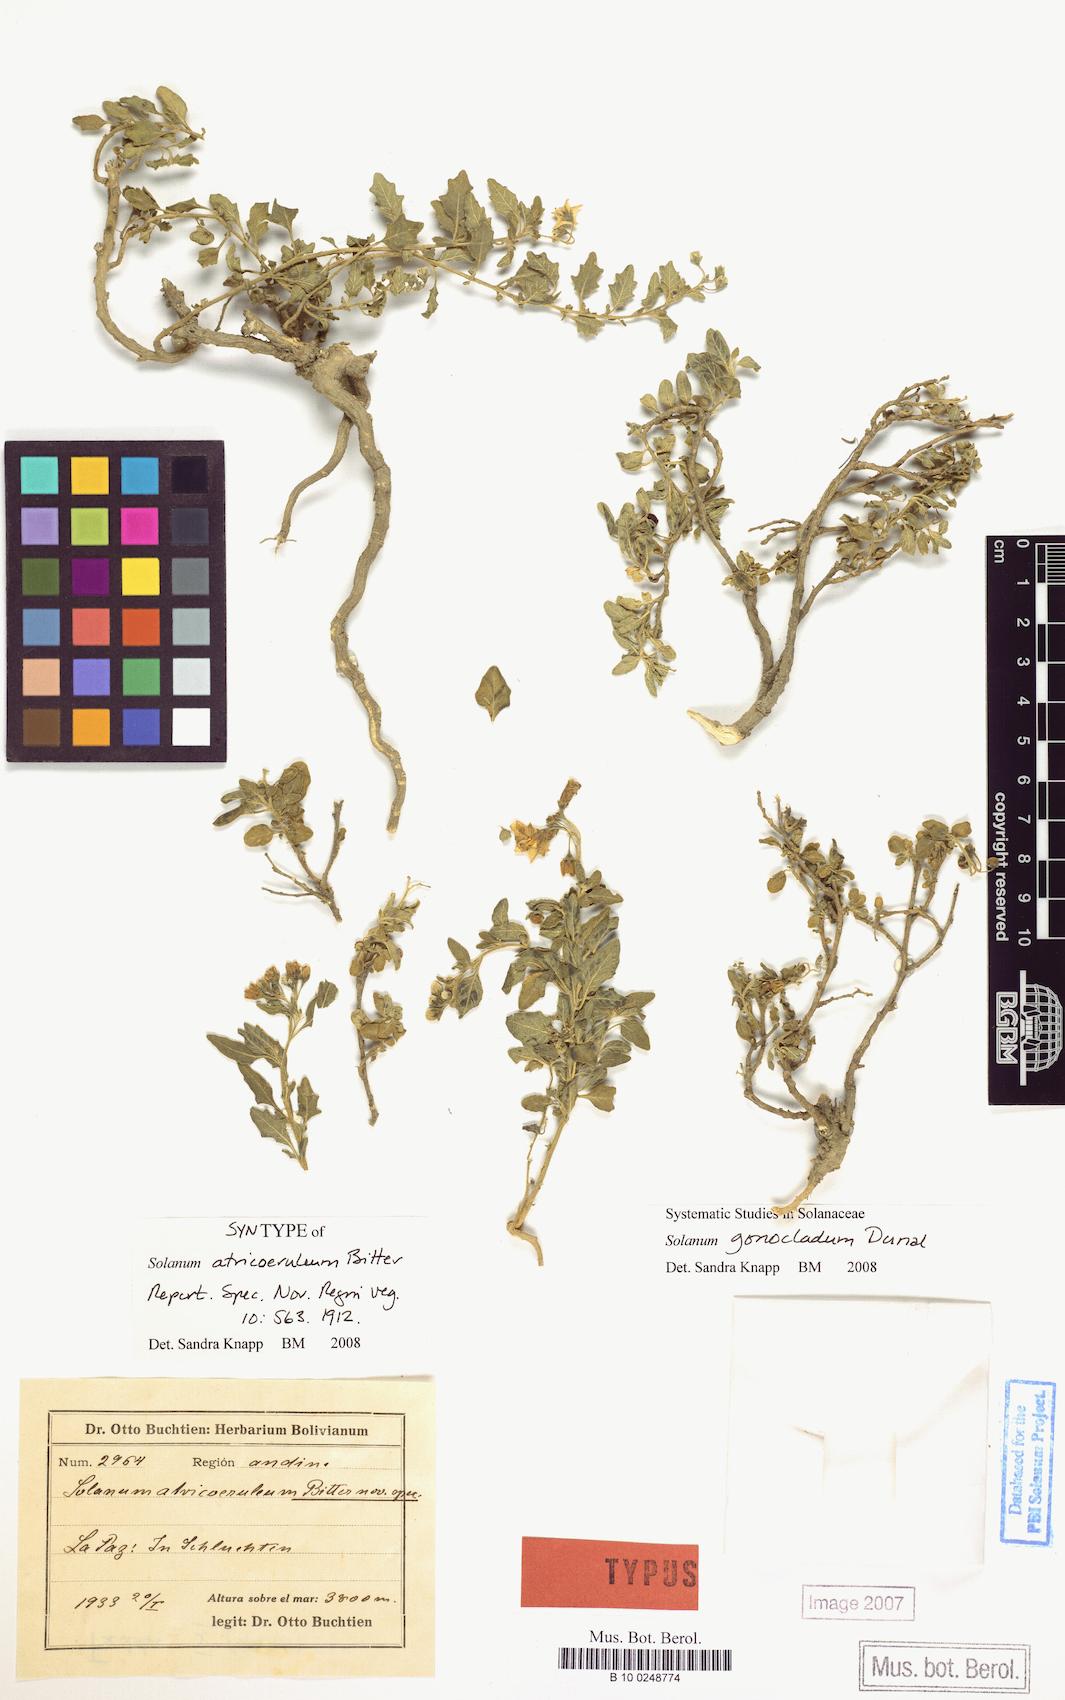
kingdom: Plantae
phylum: Tracheophyta
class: Magnoliopsida
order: Solanales
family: Solanaceae
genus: Solanum
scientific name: Solanum gonocladum
